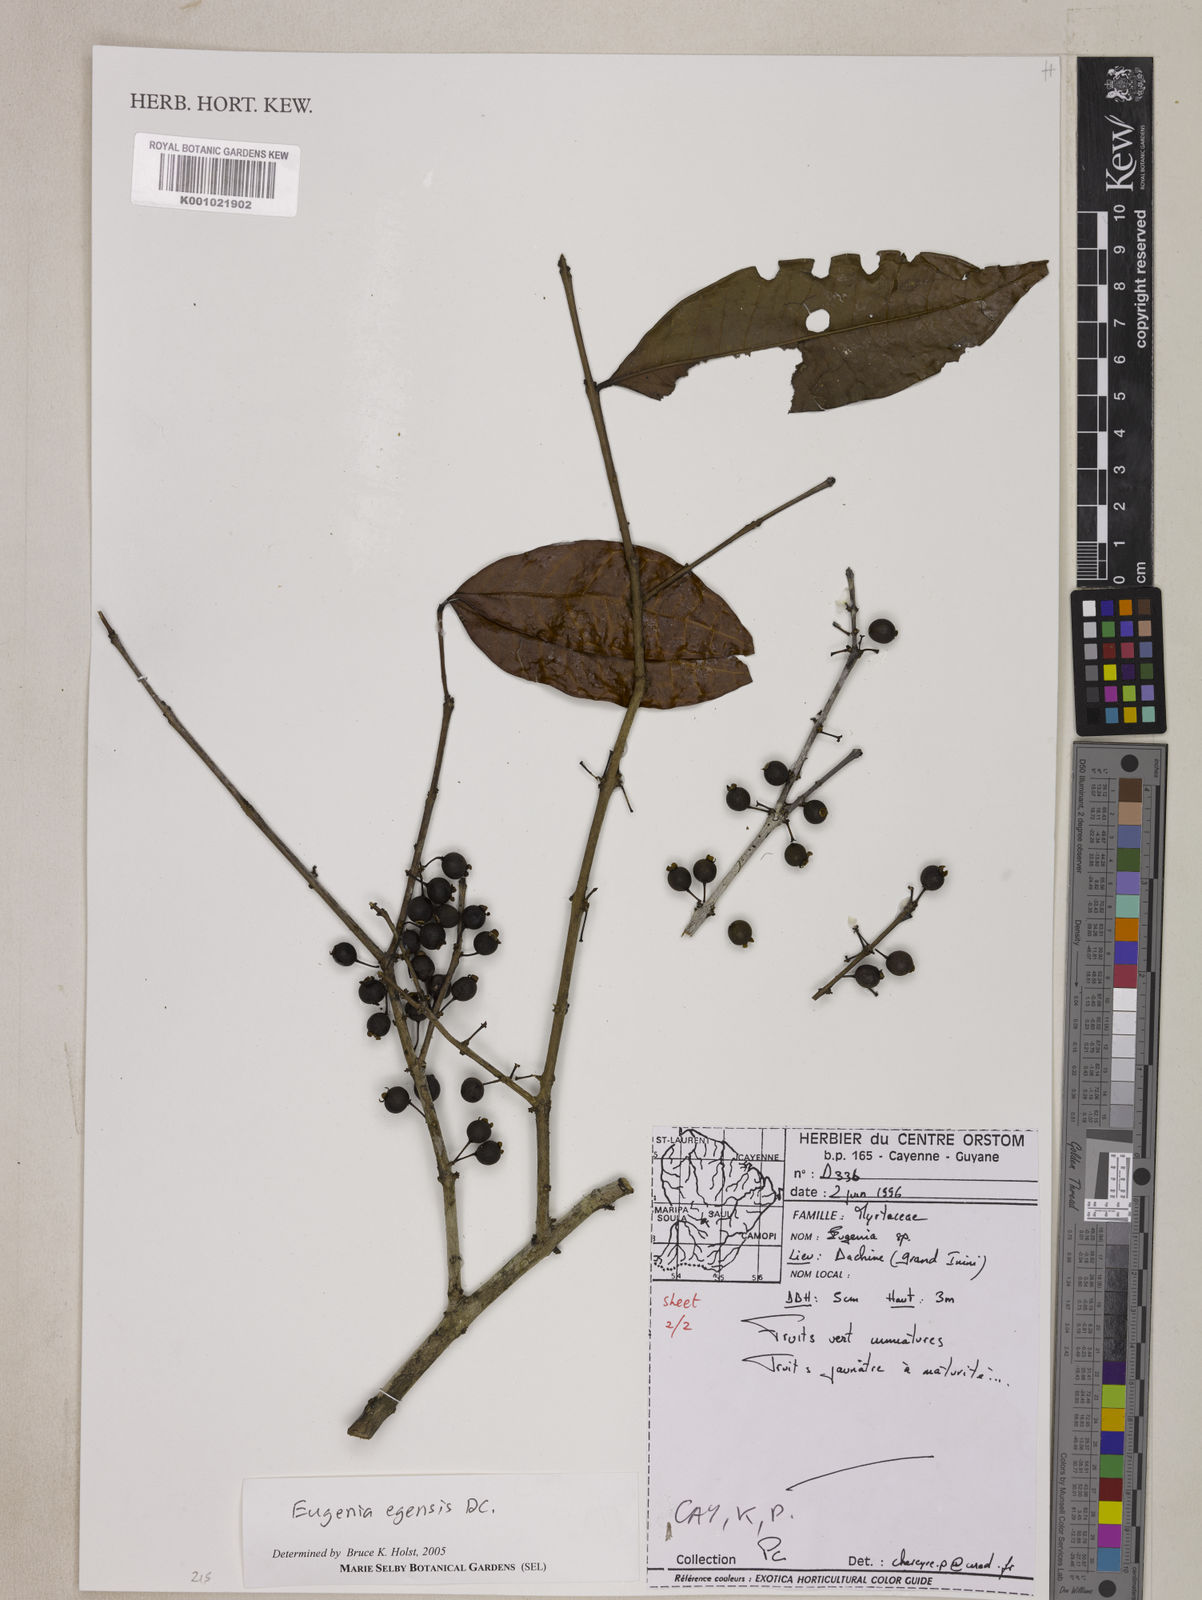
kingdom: Plantae
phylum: Tracheophyta
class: Magnoliopsida
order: Myrtales
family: Myrtaceae
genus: Eugenia
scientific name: Eugenia egensis
